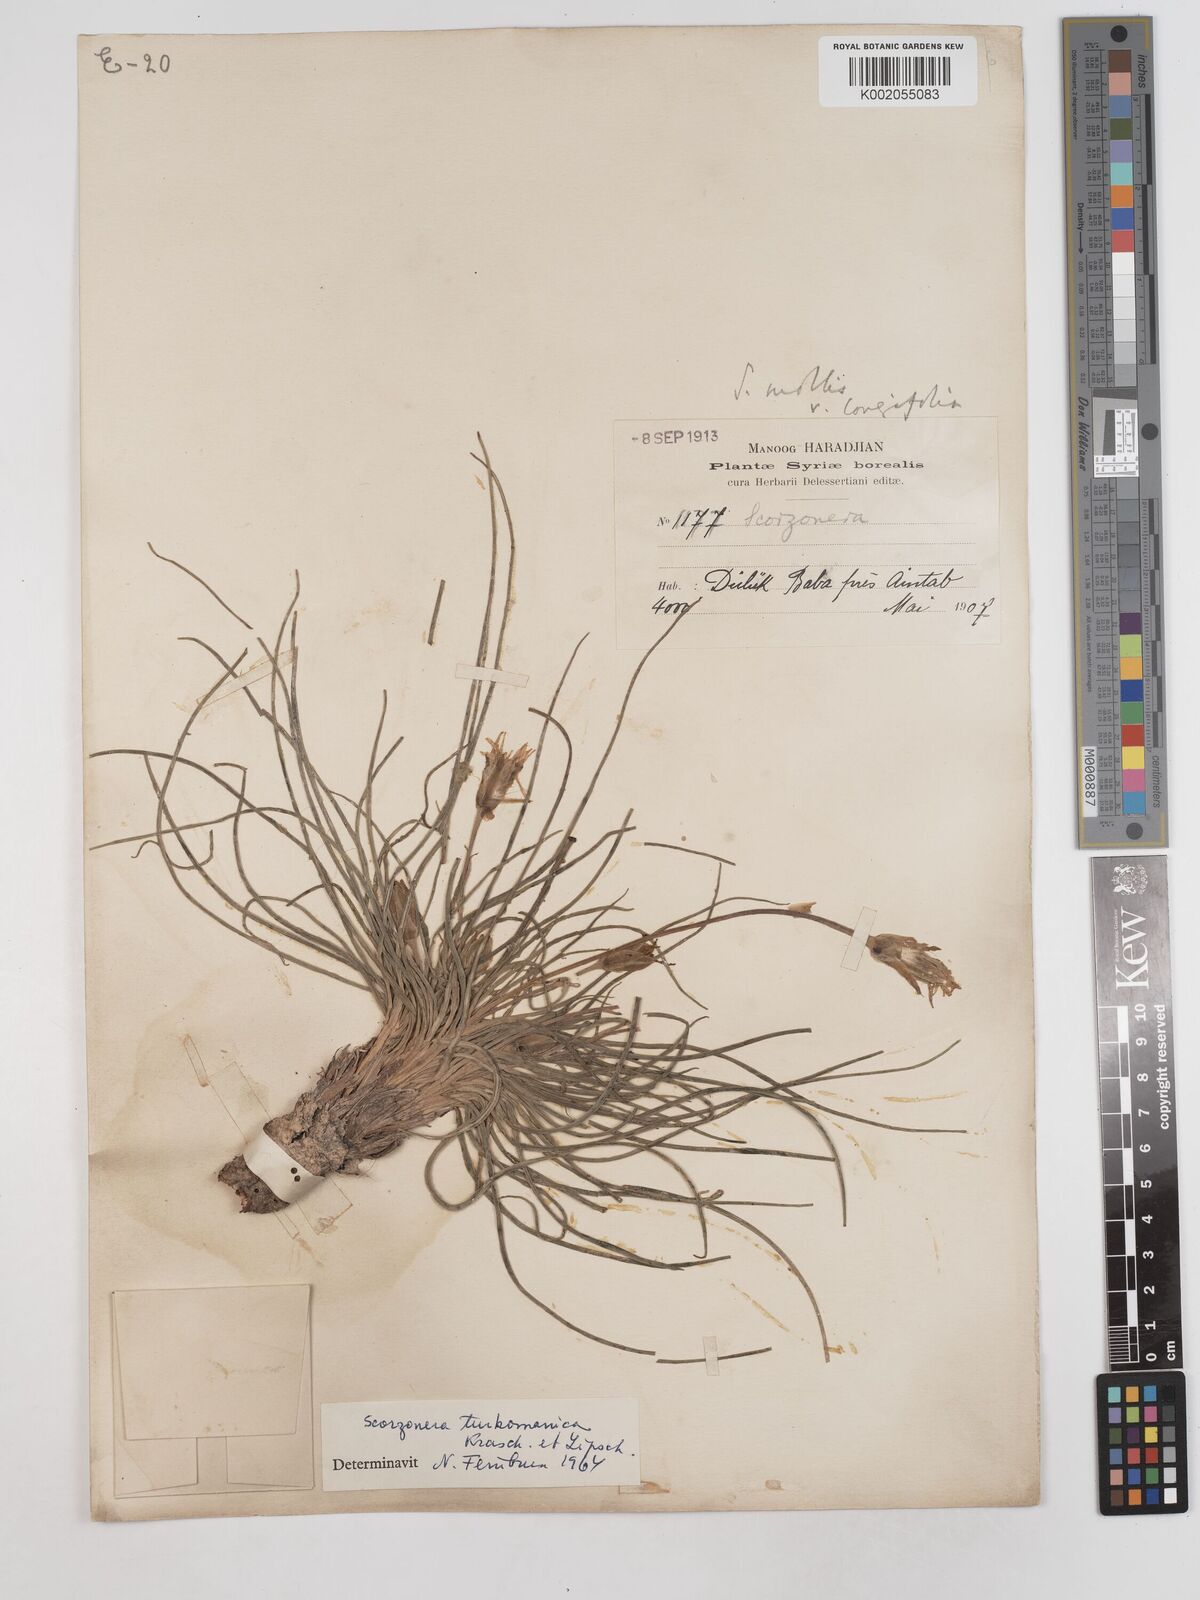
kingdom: Plantae
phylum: Tracheophyta
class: Magnoliopsida
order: Asterales
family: Asteraceae
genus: Candollea
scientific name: Candollea mollis
